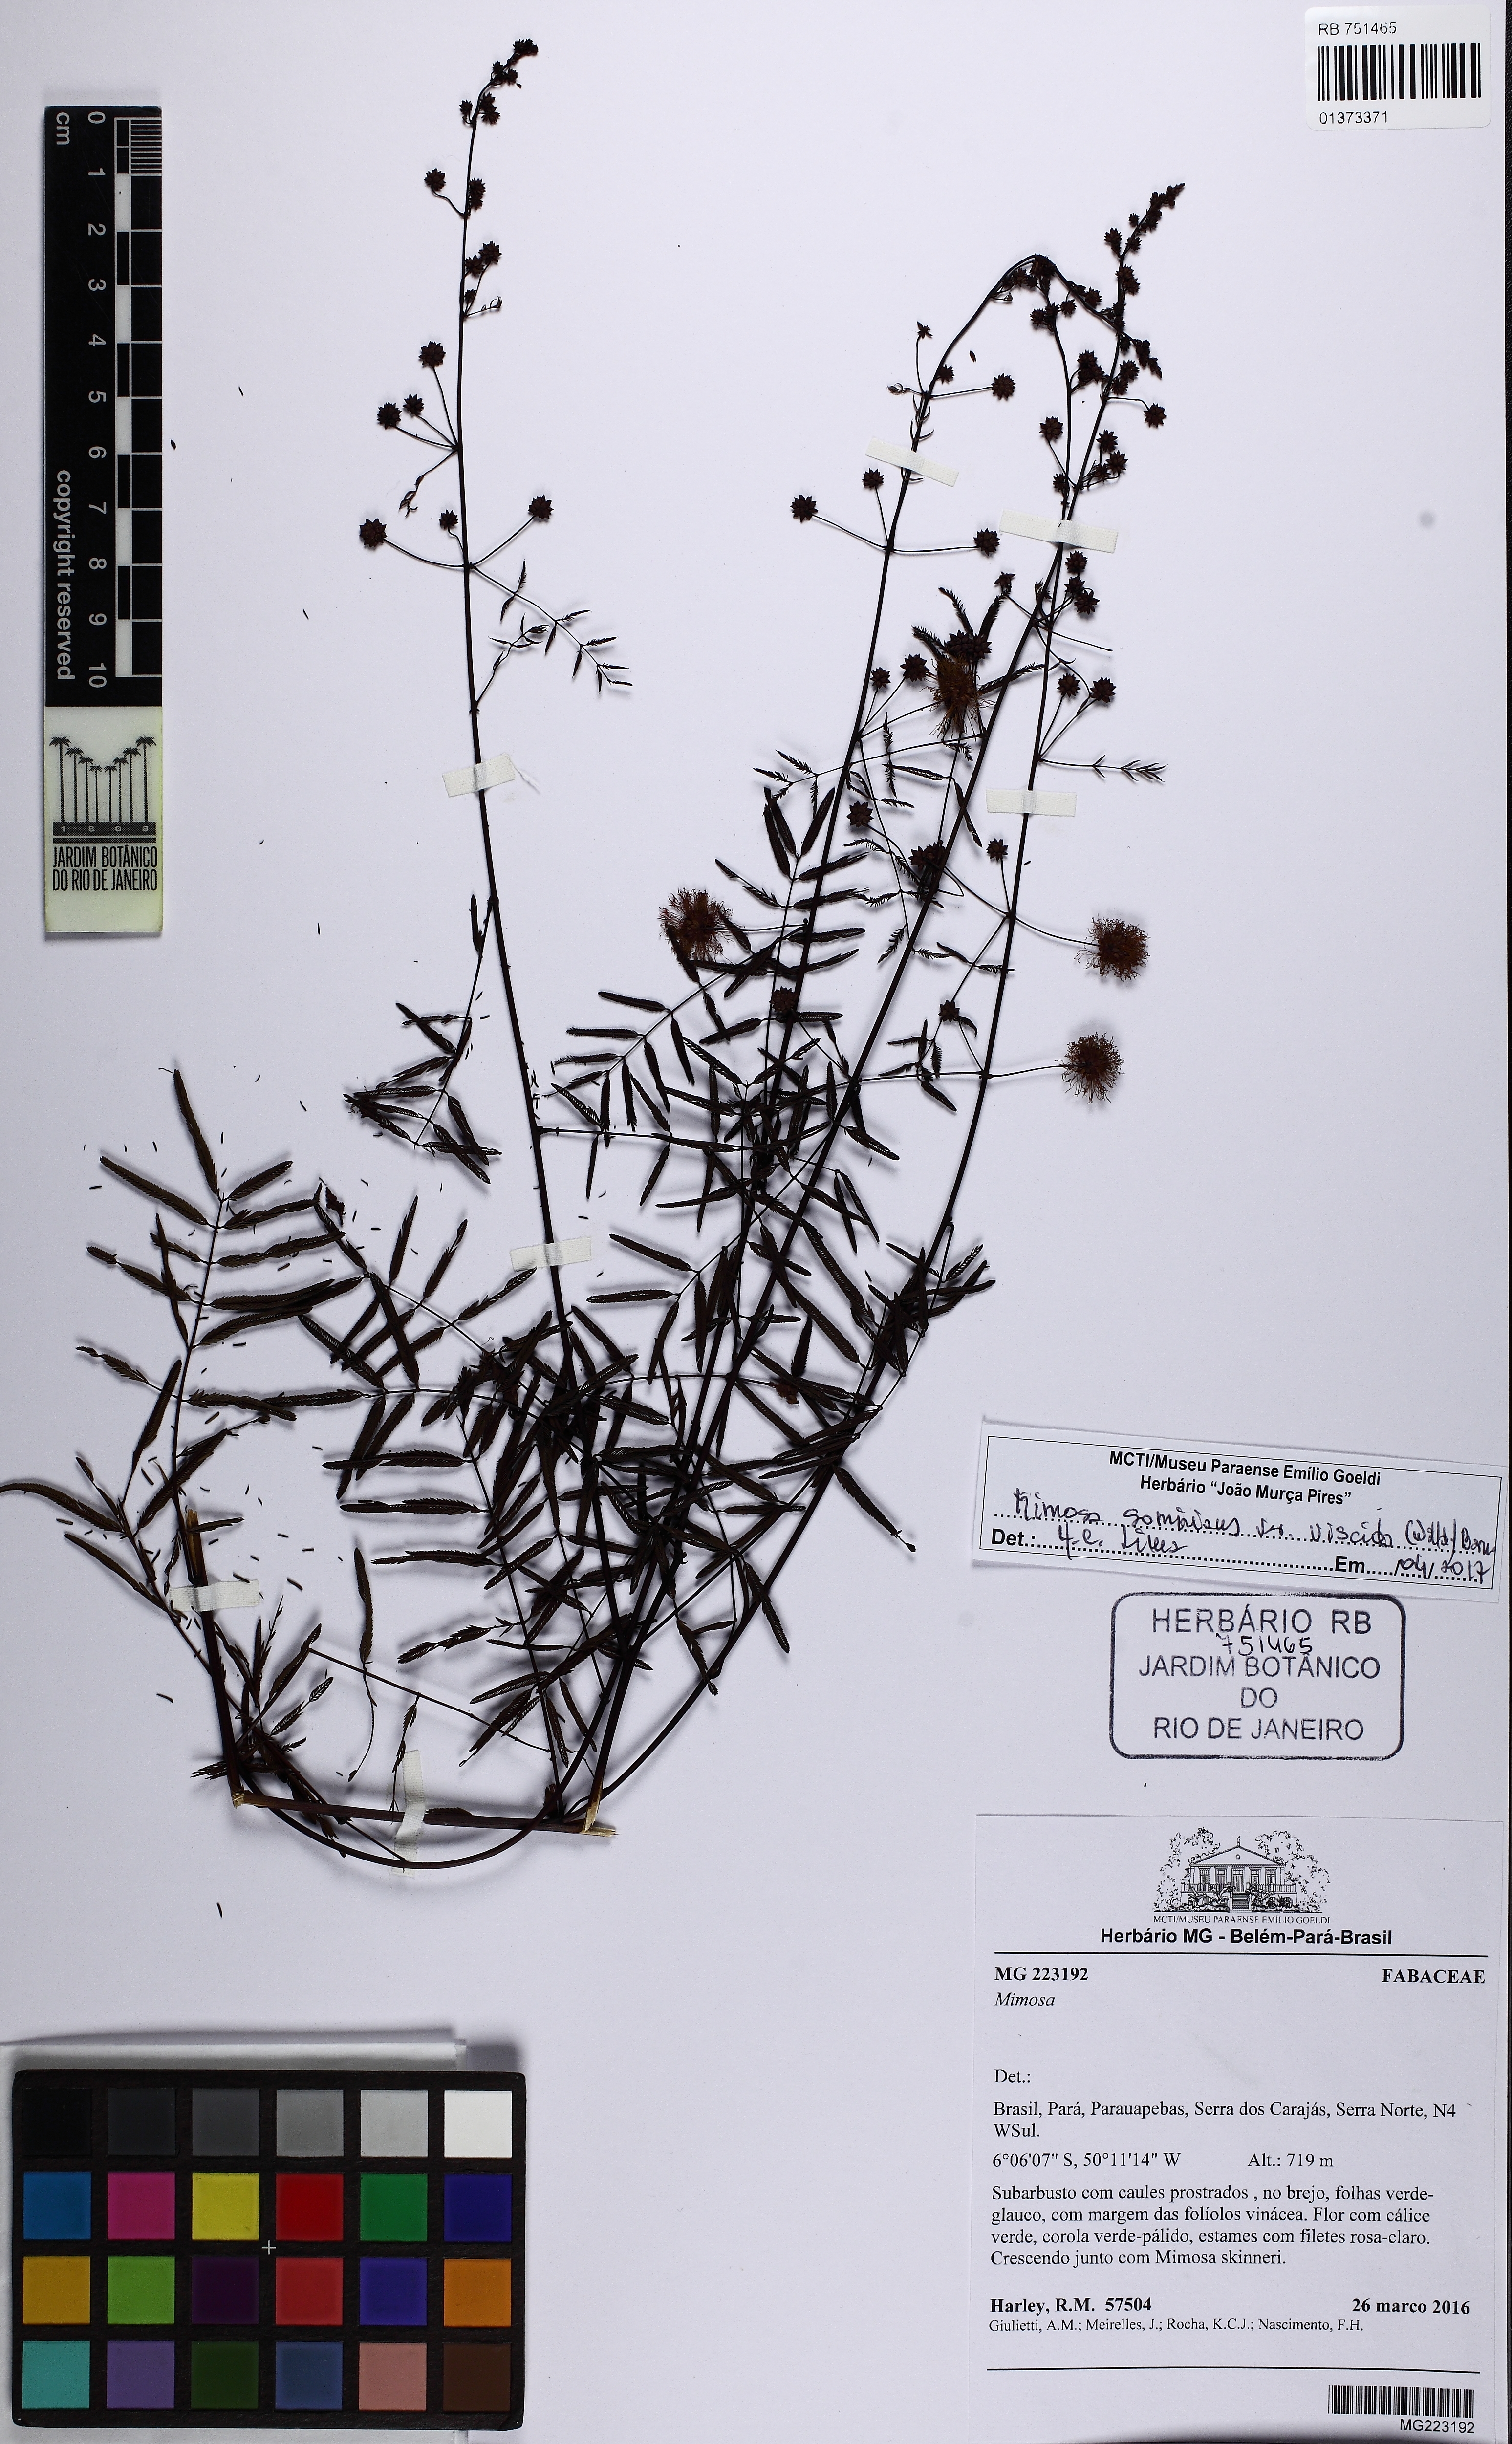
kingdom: Plantae
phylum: Tracheophyta
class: Magnoliopsida
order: Fabales
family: Fabaceae
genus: Mimosa
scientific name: Mimosa somnians
